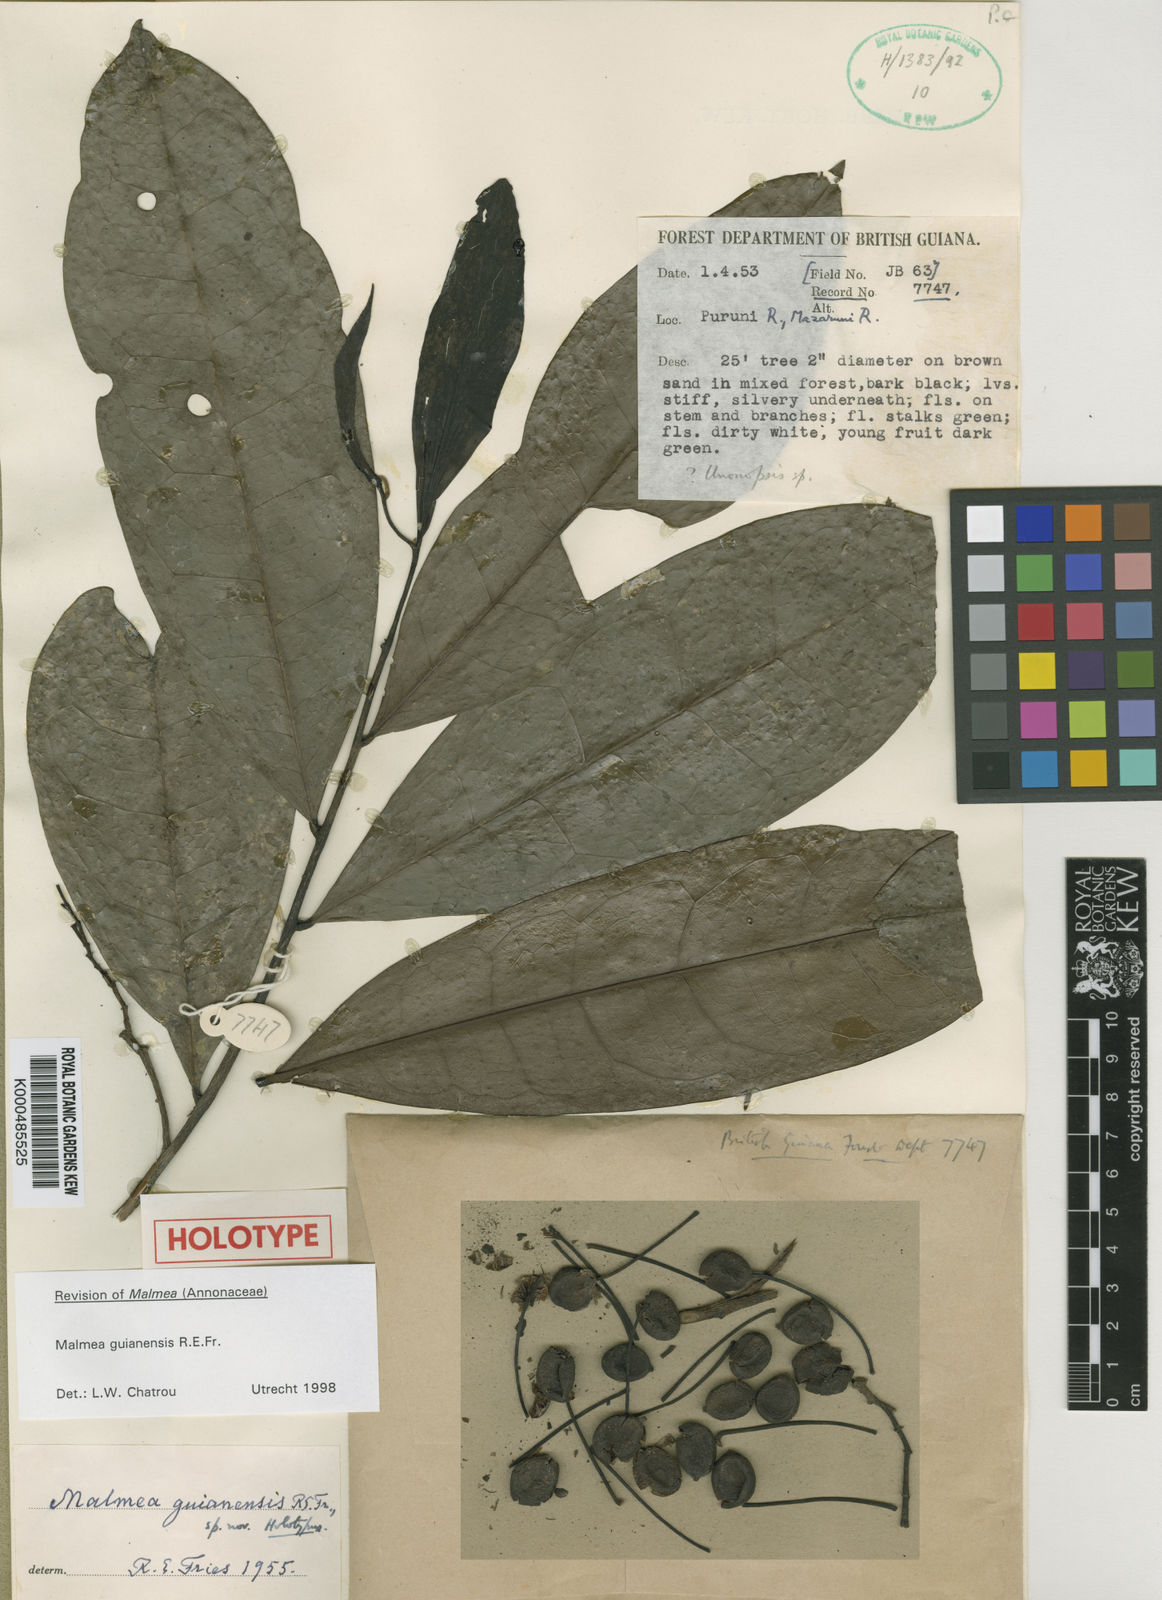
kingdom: Plantae
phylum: Tracheophyta
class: Magnoliopsida
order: Magnoliales
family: Annonaceae
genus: Malmea
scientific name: Malmea guianensis
